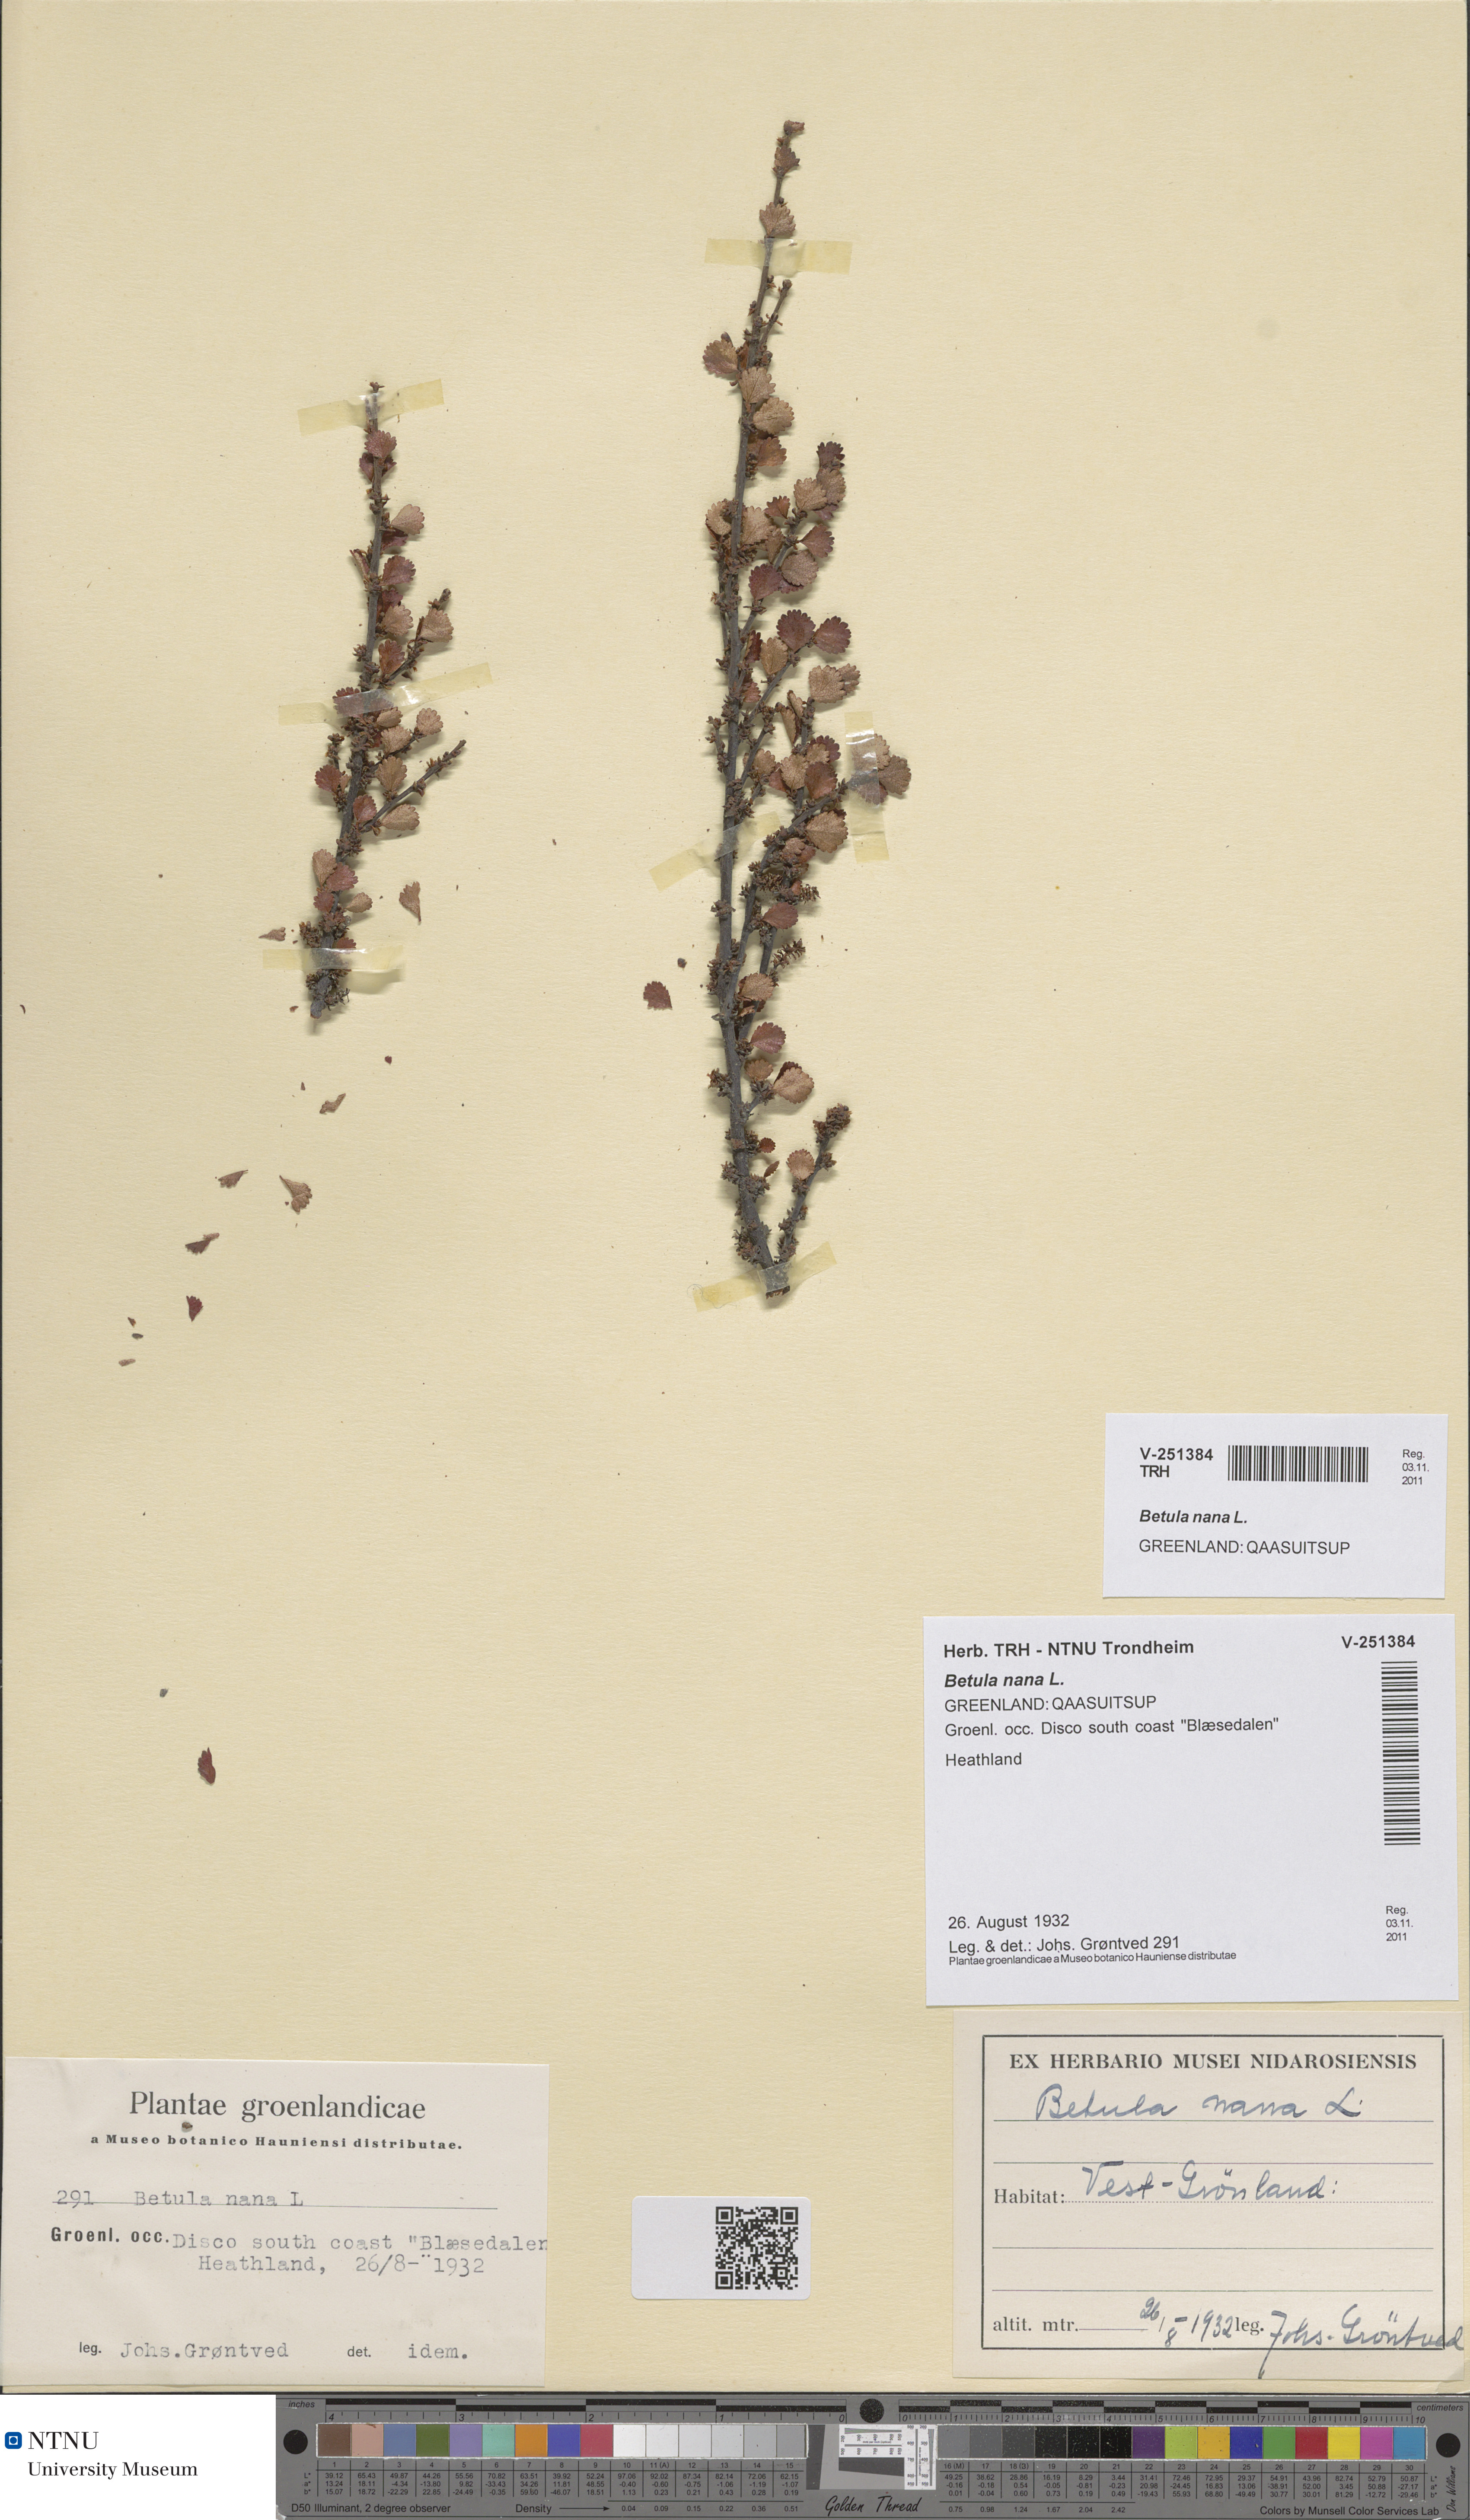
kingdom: Plantae
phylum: Tracheophyta
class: Magnoliopsida
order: Fagales
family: Betulaceae
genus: Betula
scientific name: Betula nana
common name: Arctic dwarf birch
